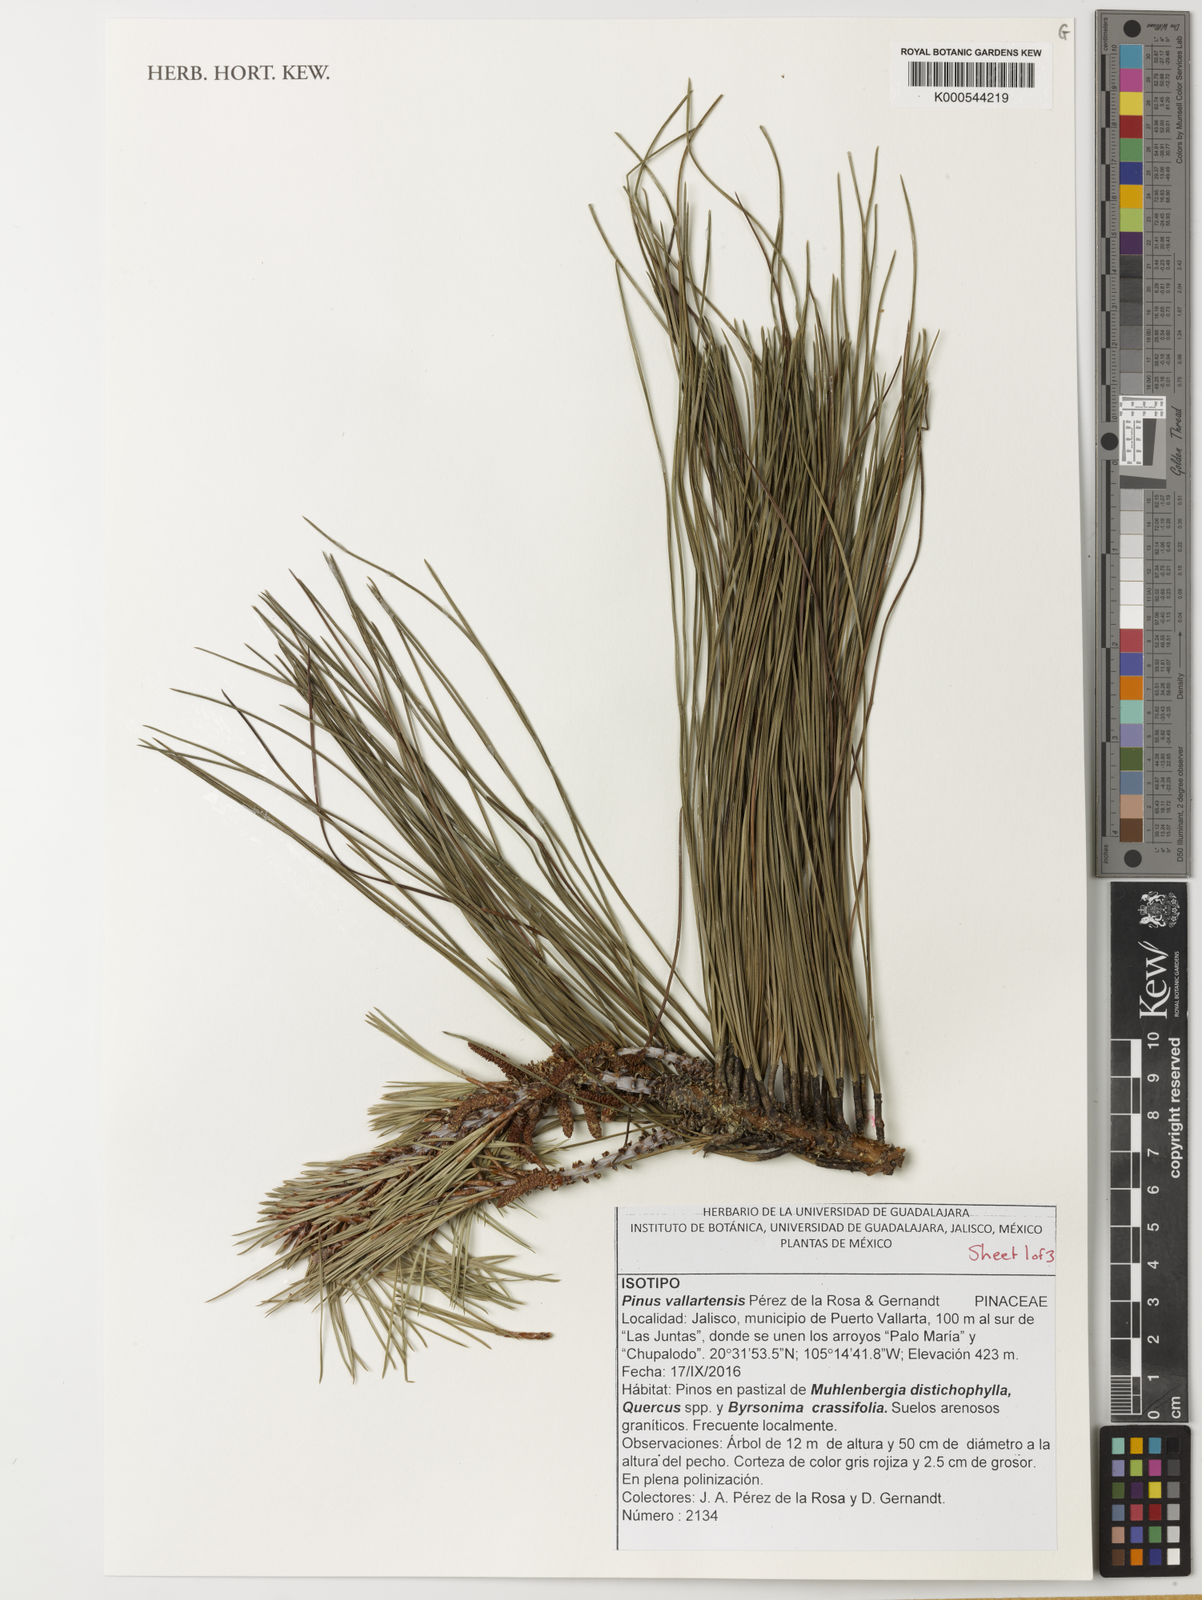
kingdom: Plantae
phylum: Tracheophyta
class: Pinopsida
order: Pinales
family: Pinaceae
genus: Pinus
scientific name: Pinus
